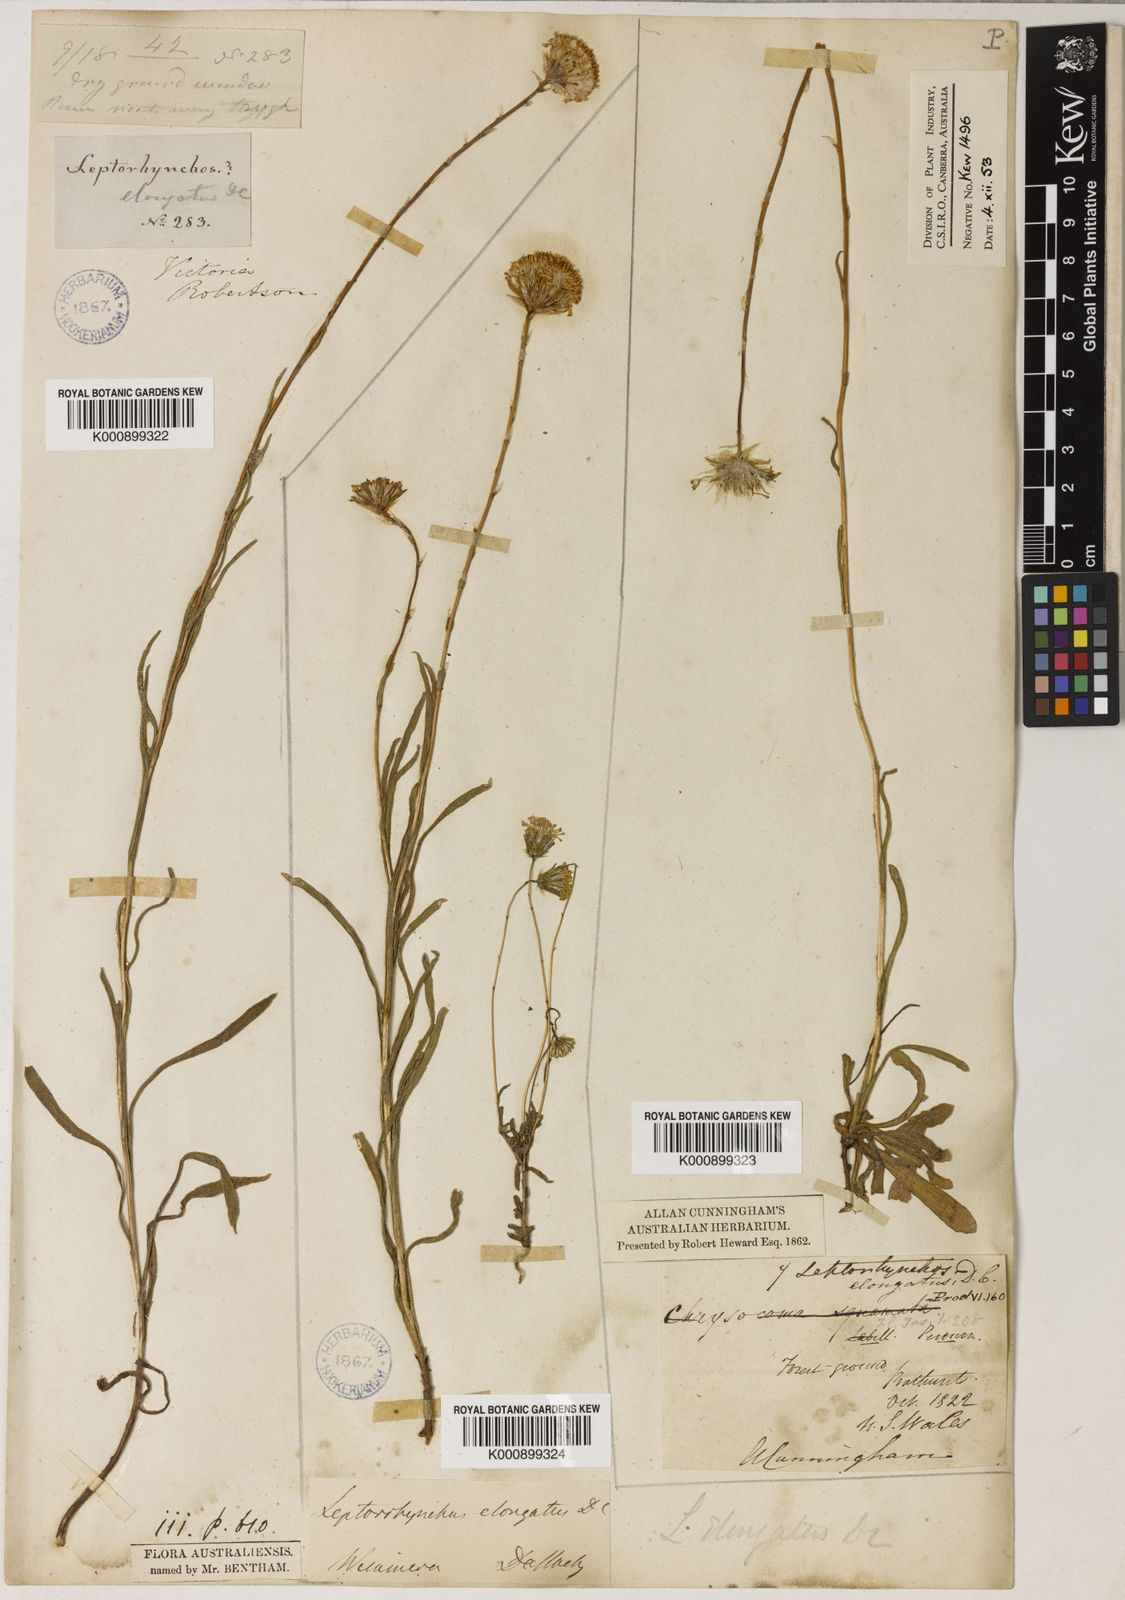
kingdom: Plantae
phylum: Tracheophyta
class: Magnoliopsida
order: Asterales
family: Asteraceae
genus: Leptorhynchos
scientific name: Leptorhynchos elongatus
